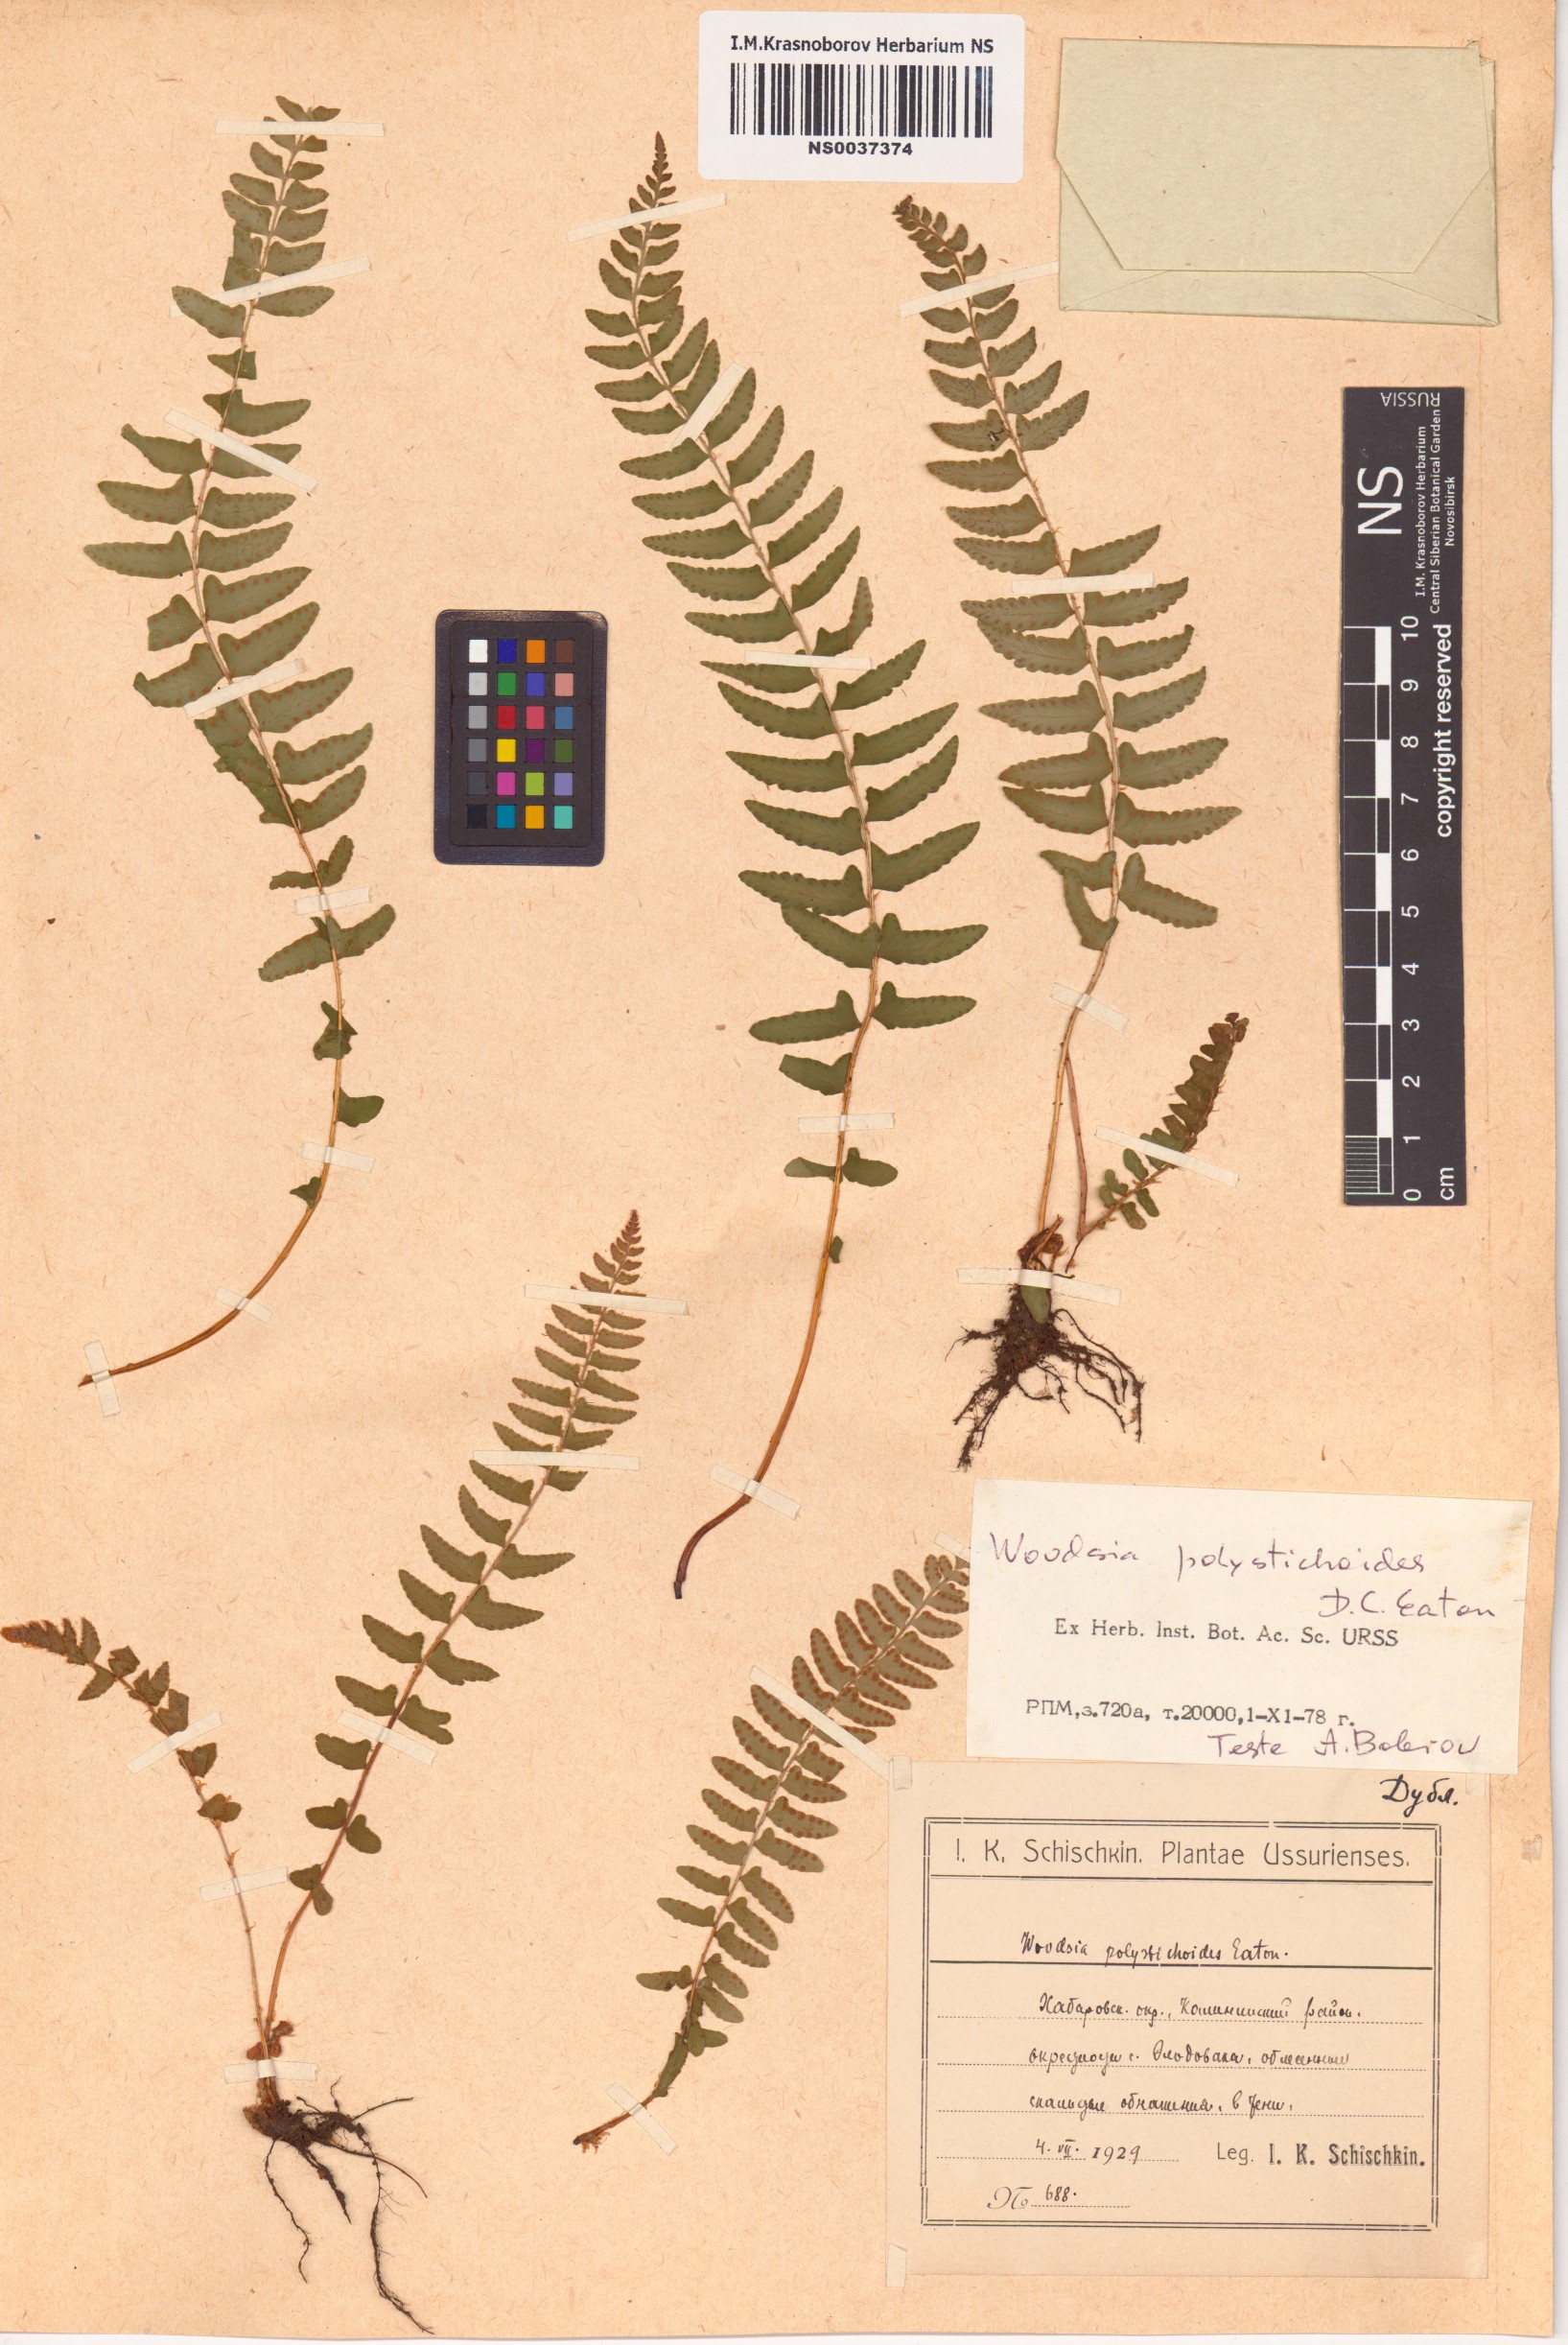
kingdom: Plantae
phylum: Tracheophyta
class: Polypodiopsida
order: Polypodiales
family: Woodsiaceae
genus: Woodsia
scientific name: Woodsia polystichoides
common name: Holly fern woodsia
